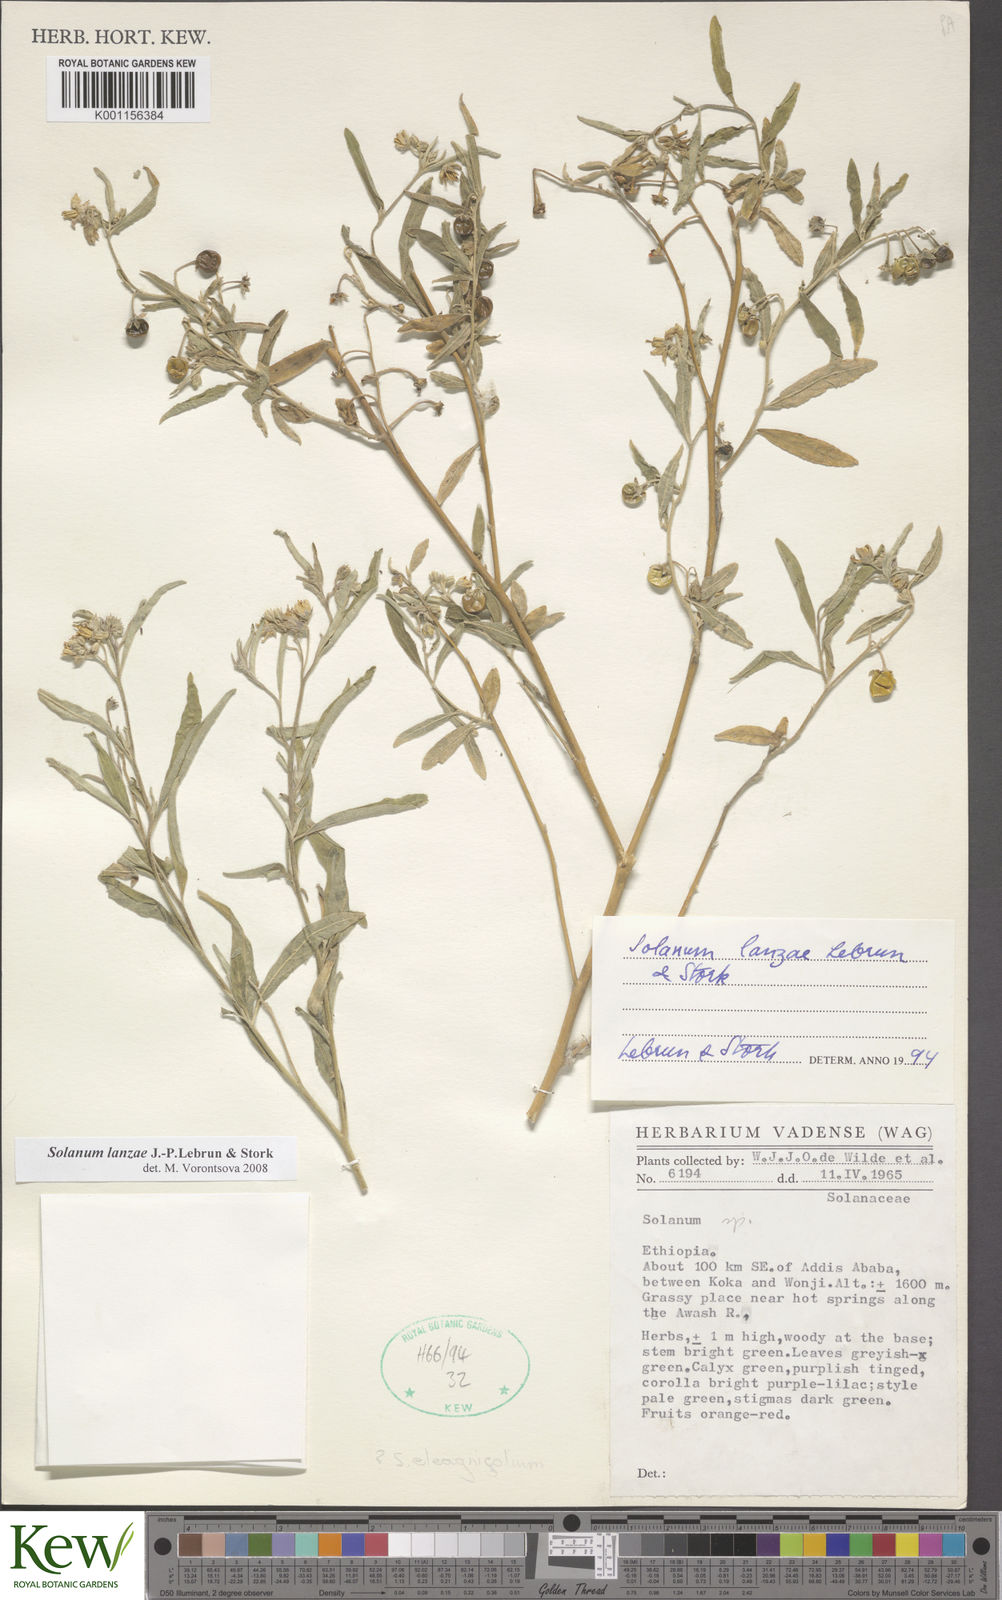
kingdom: Plantae
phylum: Tracheophyta
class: Magnoliopsida
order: Solanales
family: Solanaceae
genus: Solanum
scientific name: Solanum lanzae
